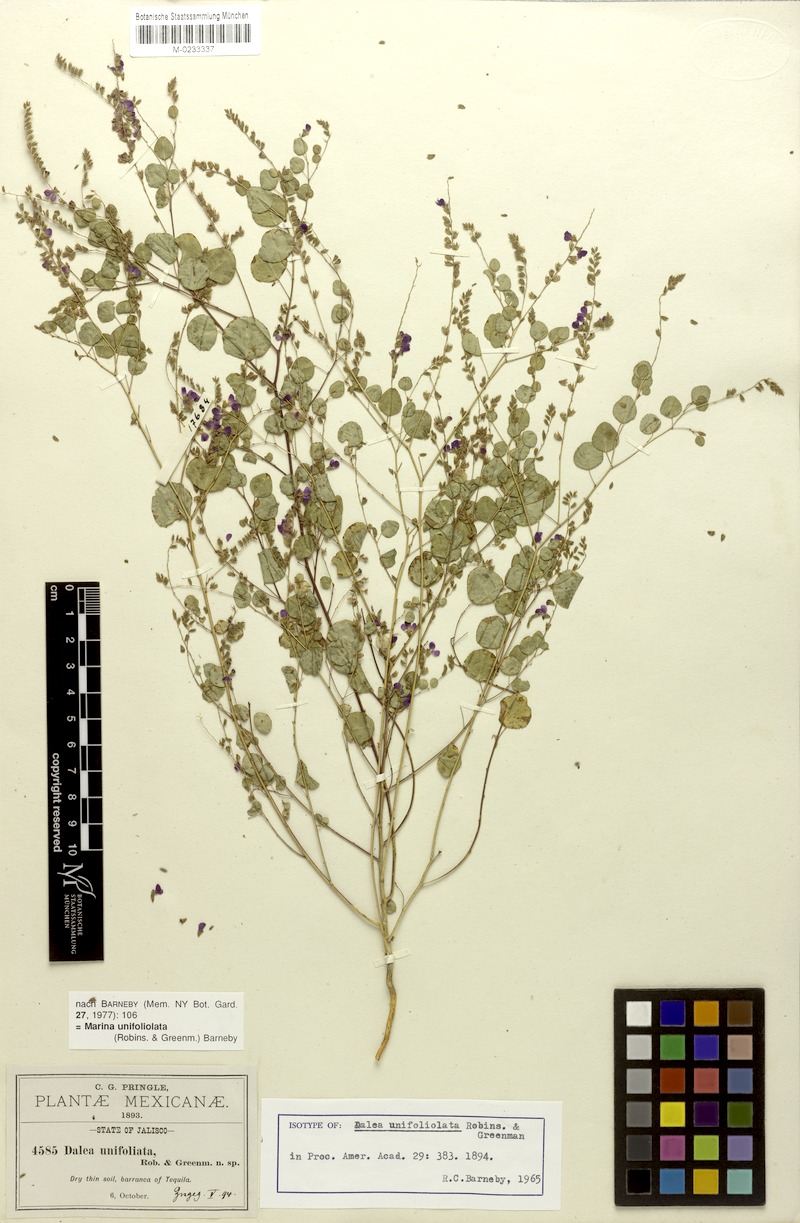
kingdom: Plantae
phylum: Tracheophyta
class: Magnoliopsida
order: Fabales
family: Fabaceae
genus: Marina
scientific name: Marina unifoliolata
